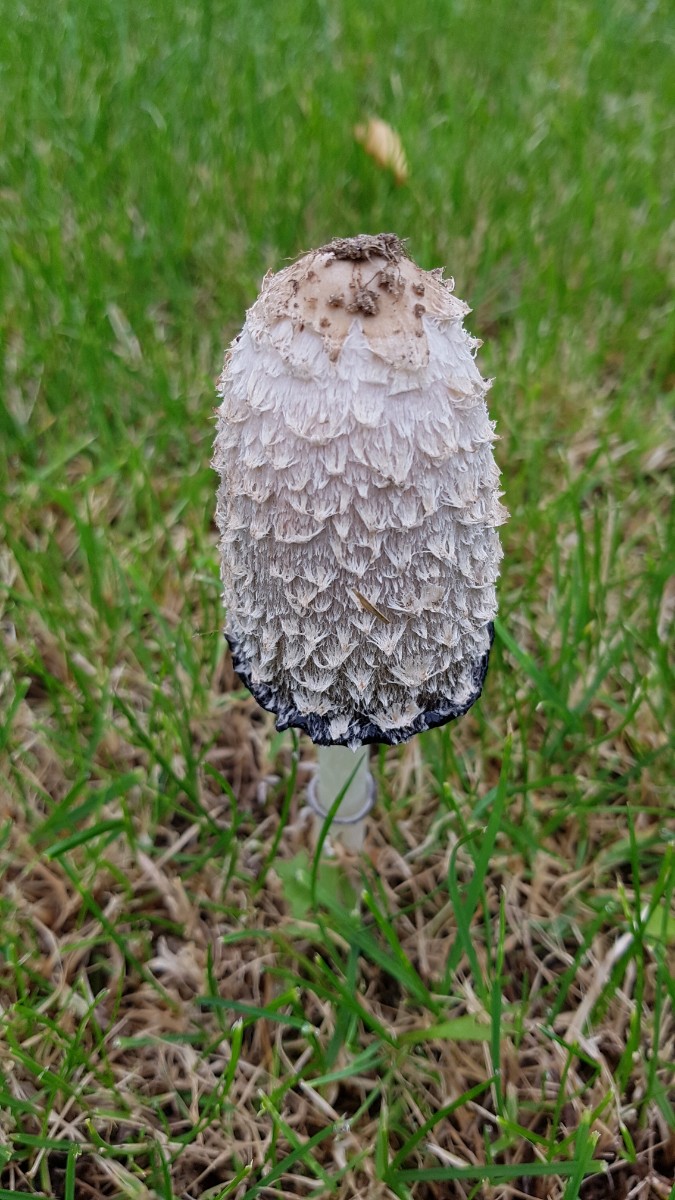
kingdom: Fungi
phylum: Basidiomycota
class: Agaricomycetes
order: Agaricales
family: Agaricaceae
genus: Coprinus
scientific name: Coprinus comatus
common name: stor parykhat
